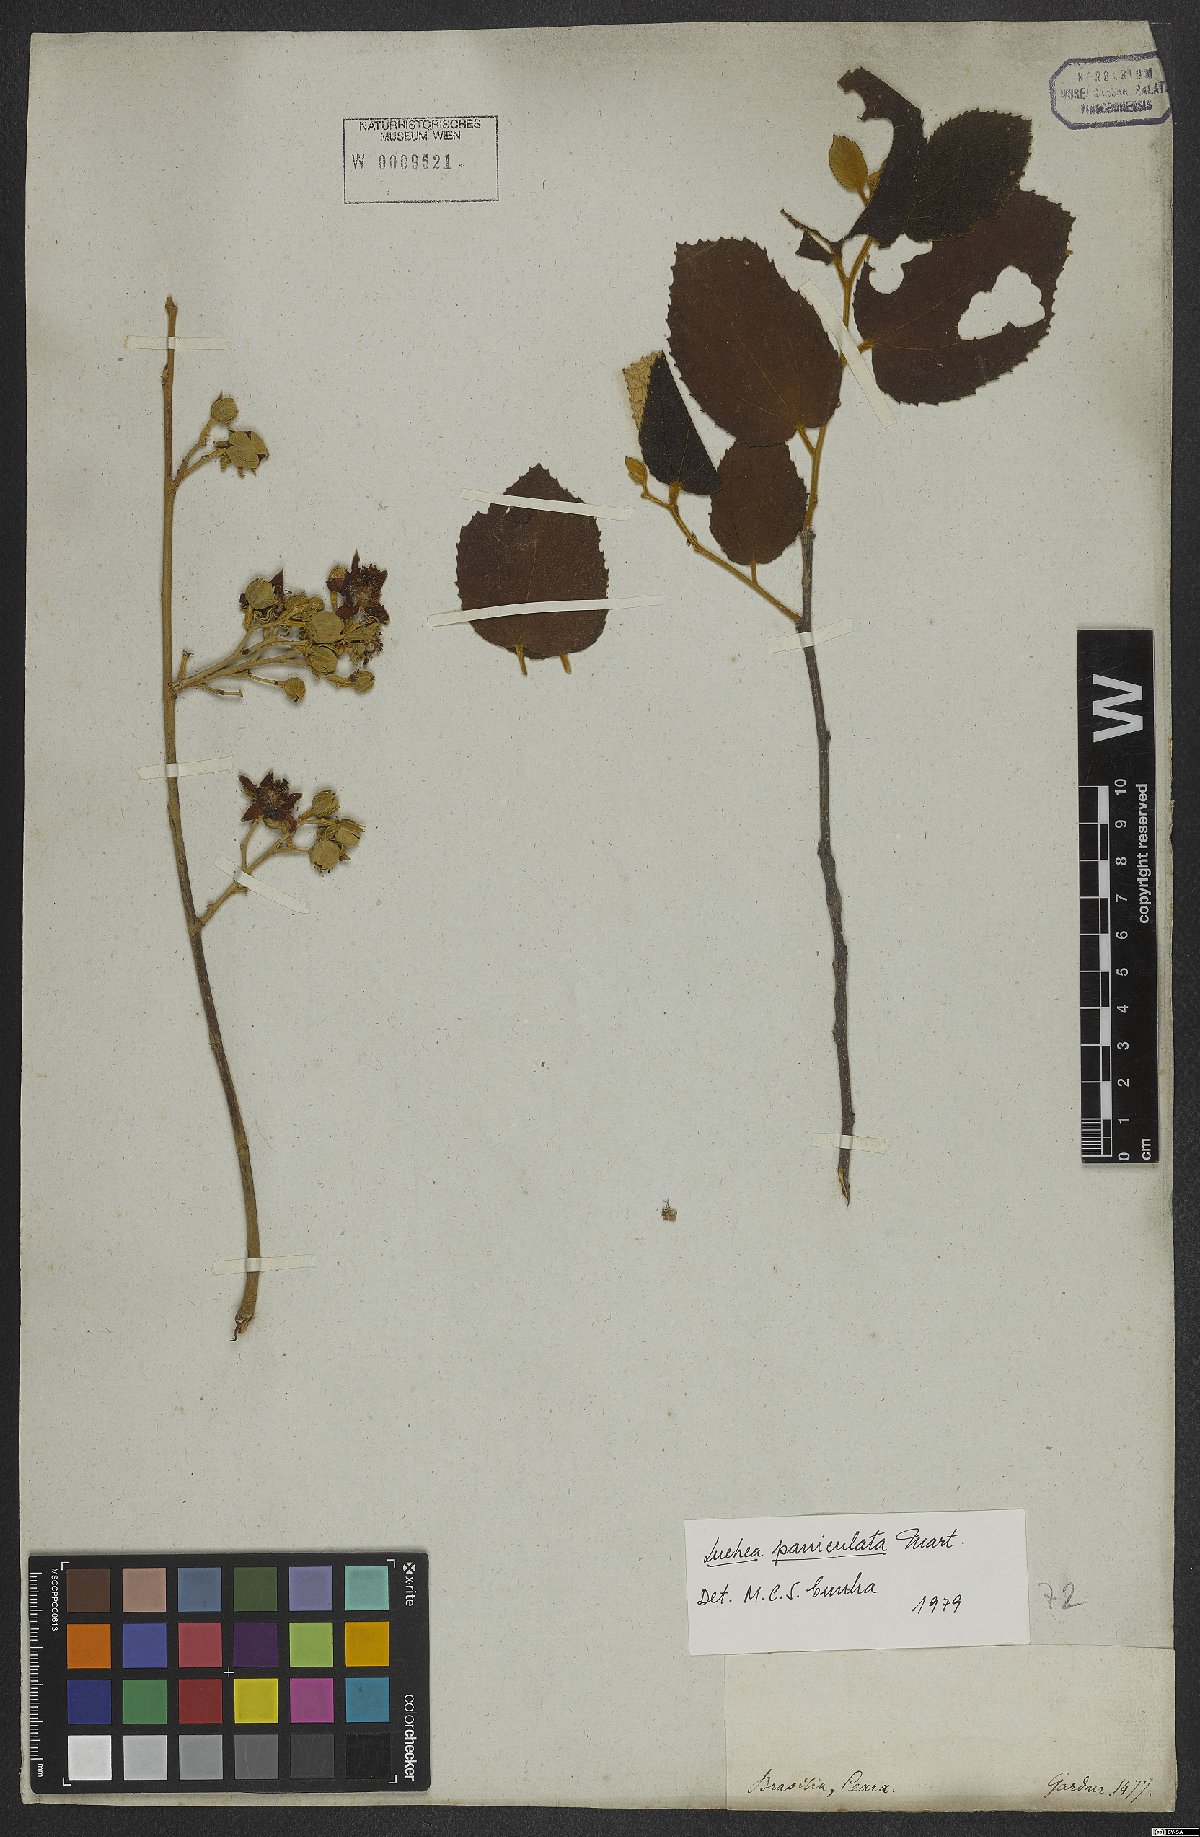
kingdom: Plantae
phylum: Tracheophyta
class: Magnoliopsida
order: Malvales
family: Malvaceae
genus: Luehea
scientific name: Luehea paniculata
